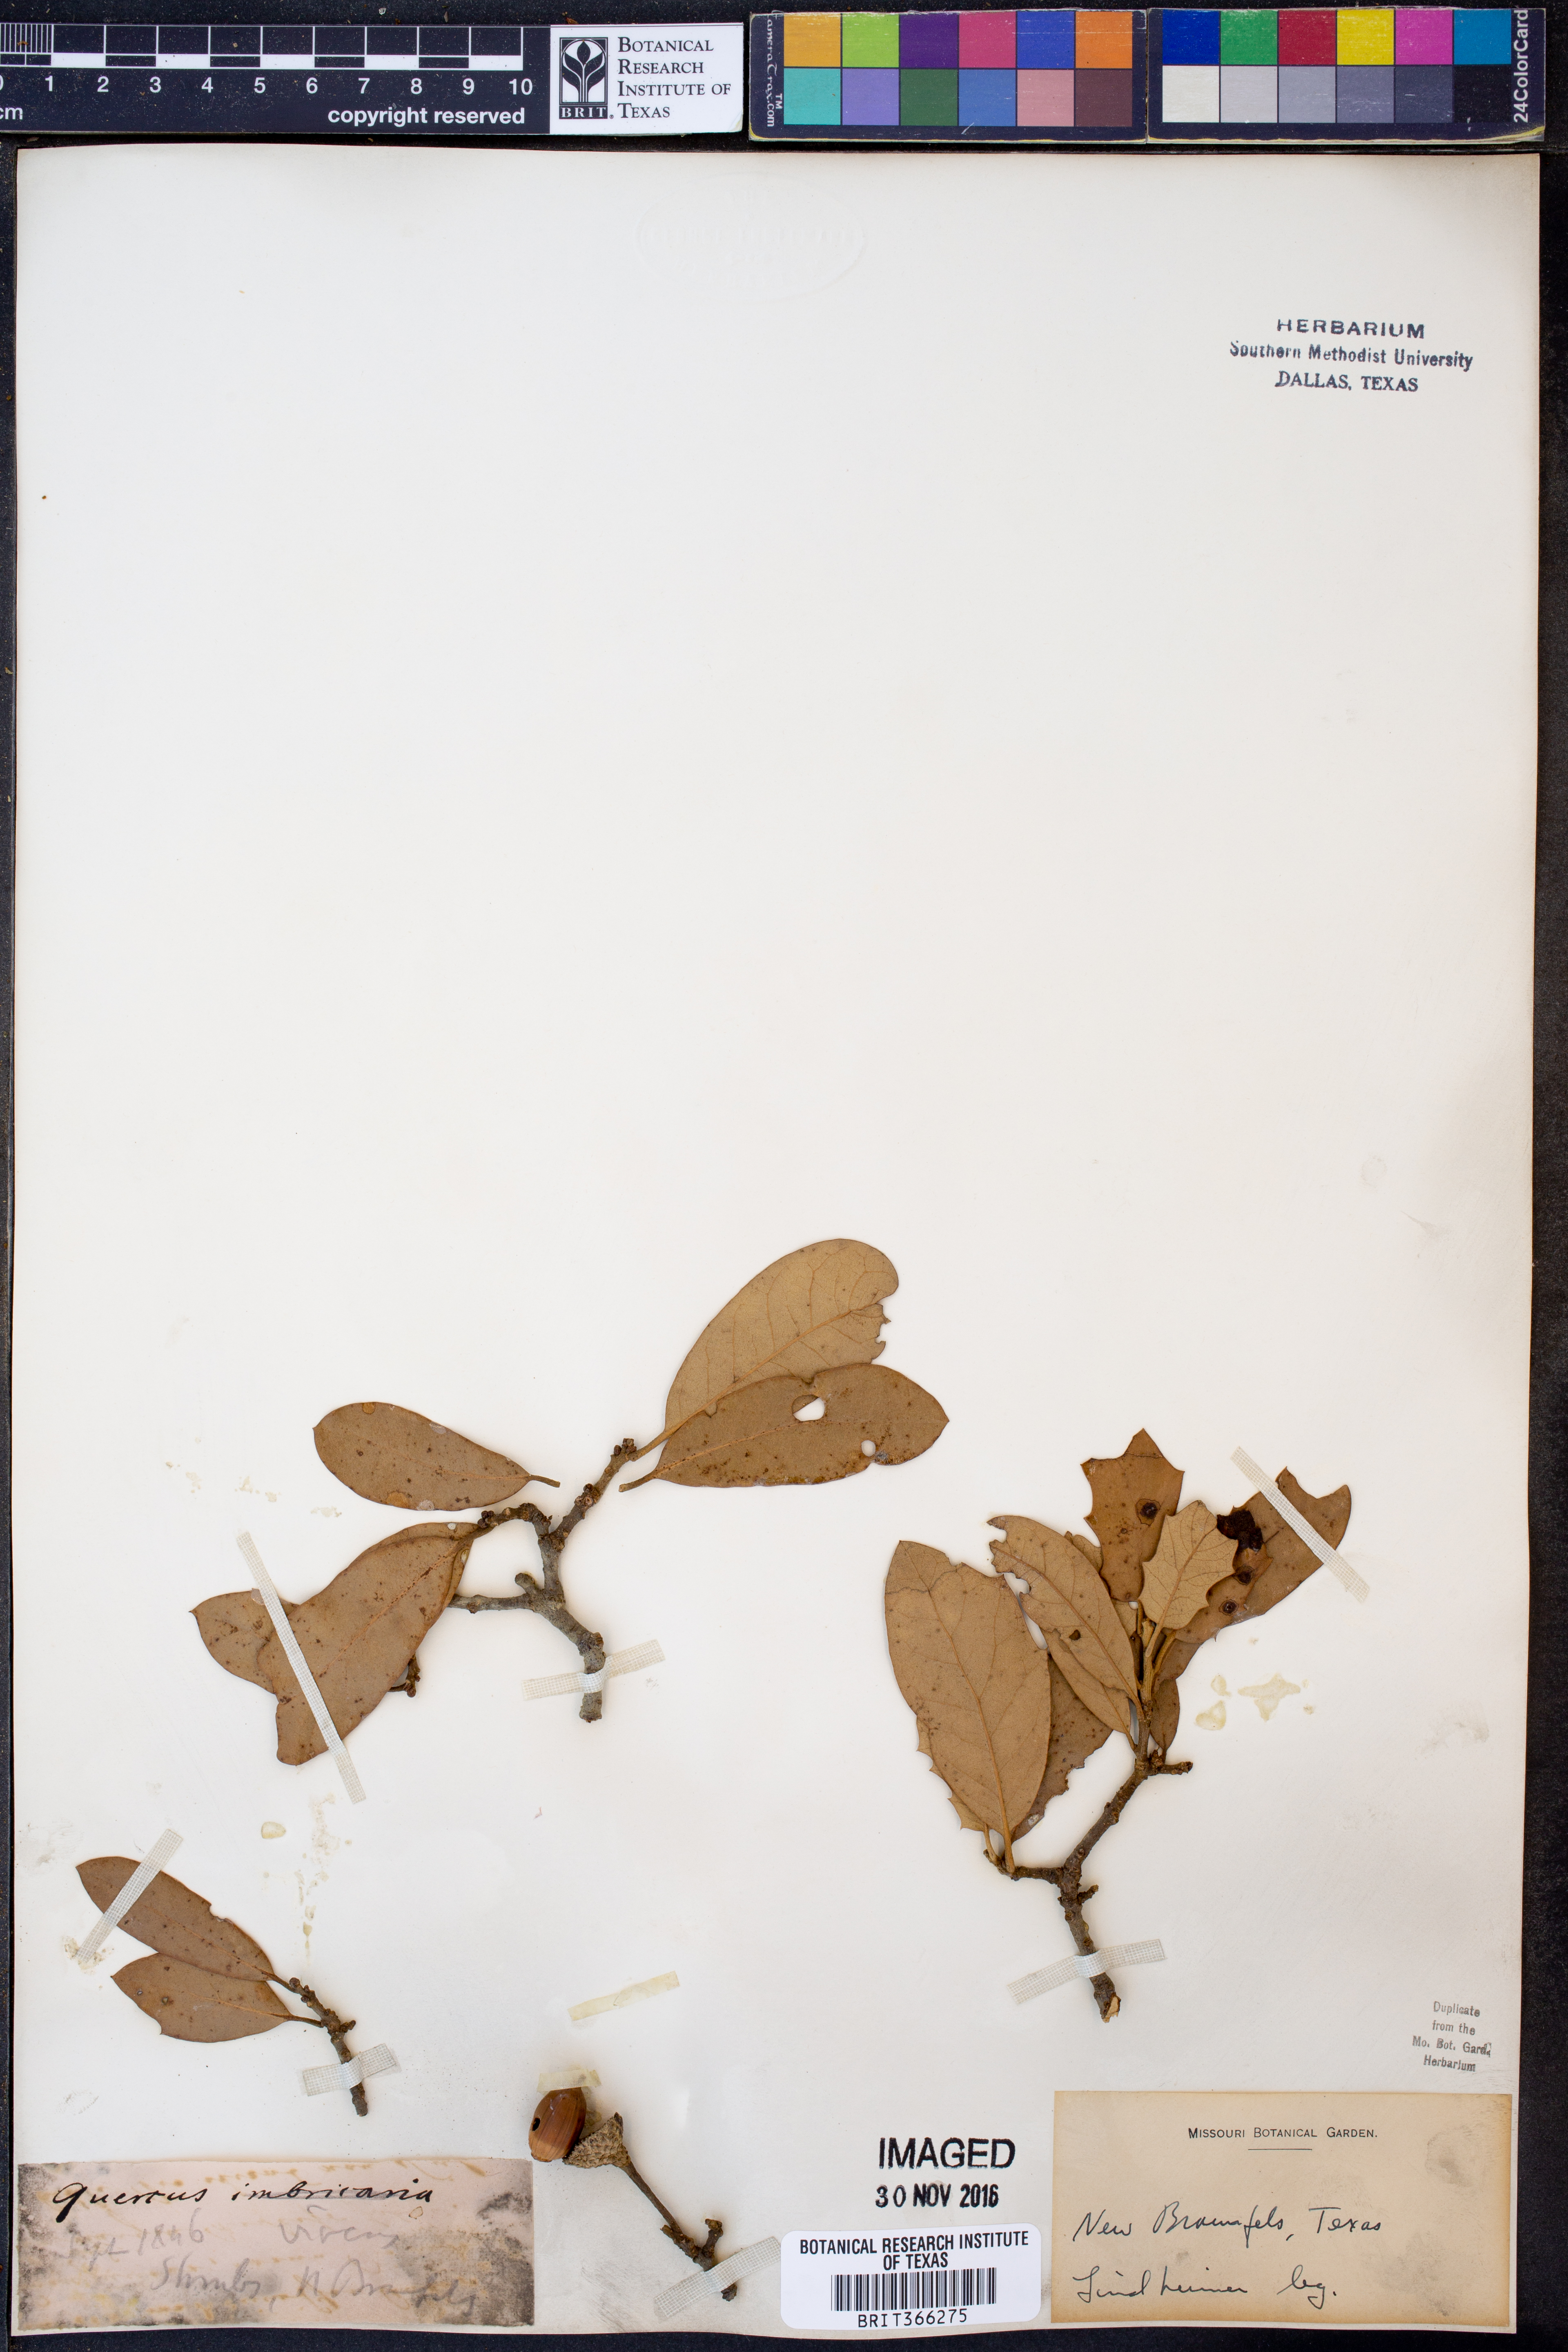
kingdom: Plantae
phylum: Tracheophyta
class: Magnoliopsida
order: Fagales
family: Fagaceae
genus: Quercus
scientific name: Quercus virginiana
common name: Southern live oak
